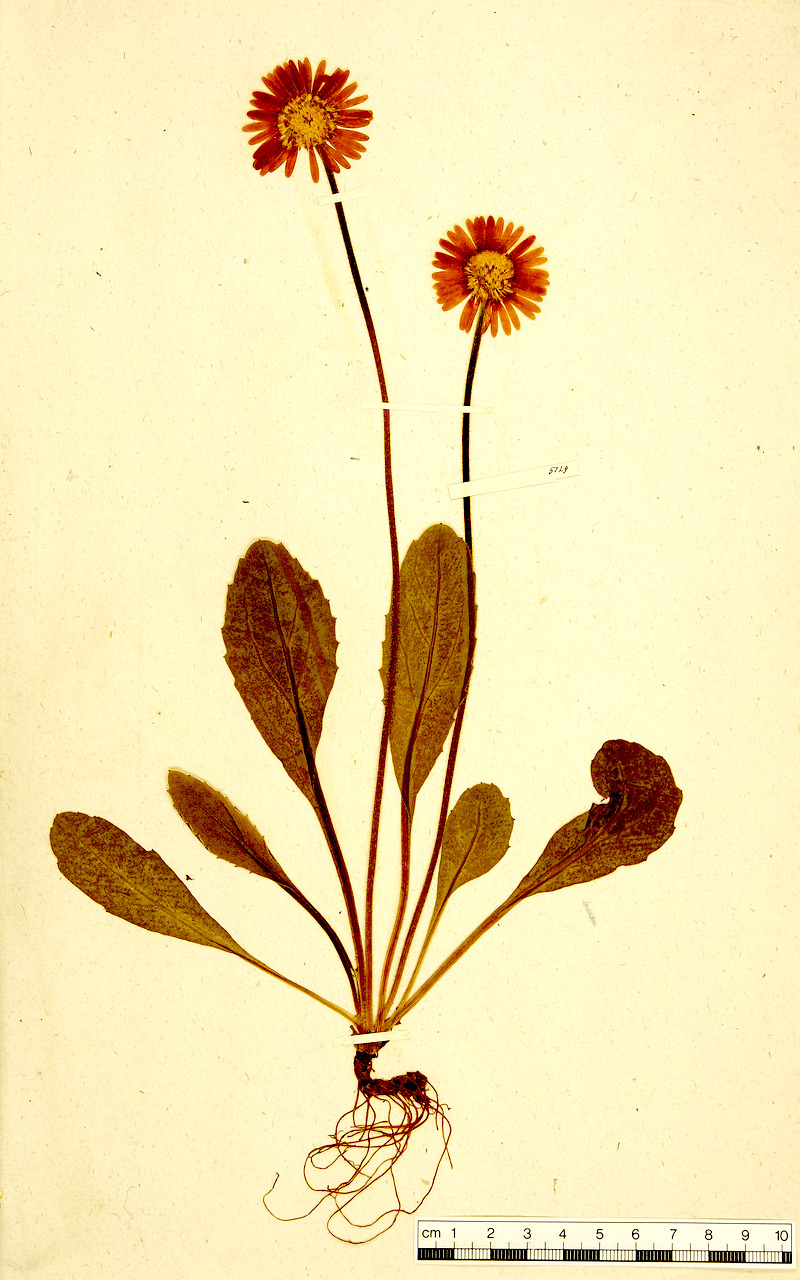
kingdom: Plantae
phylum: Tracheophyta
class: Magnoliopsida
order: Asterales
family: Asteraceae
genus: Bellidiastrum
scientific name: Bellidiastrum michelii
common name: Daisy-star aster
